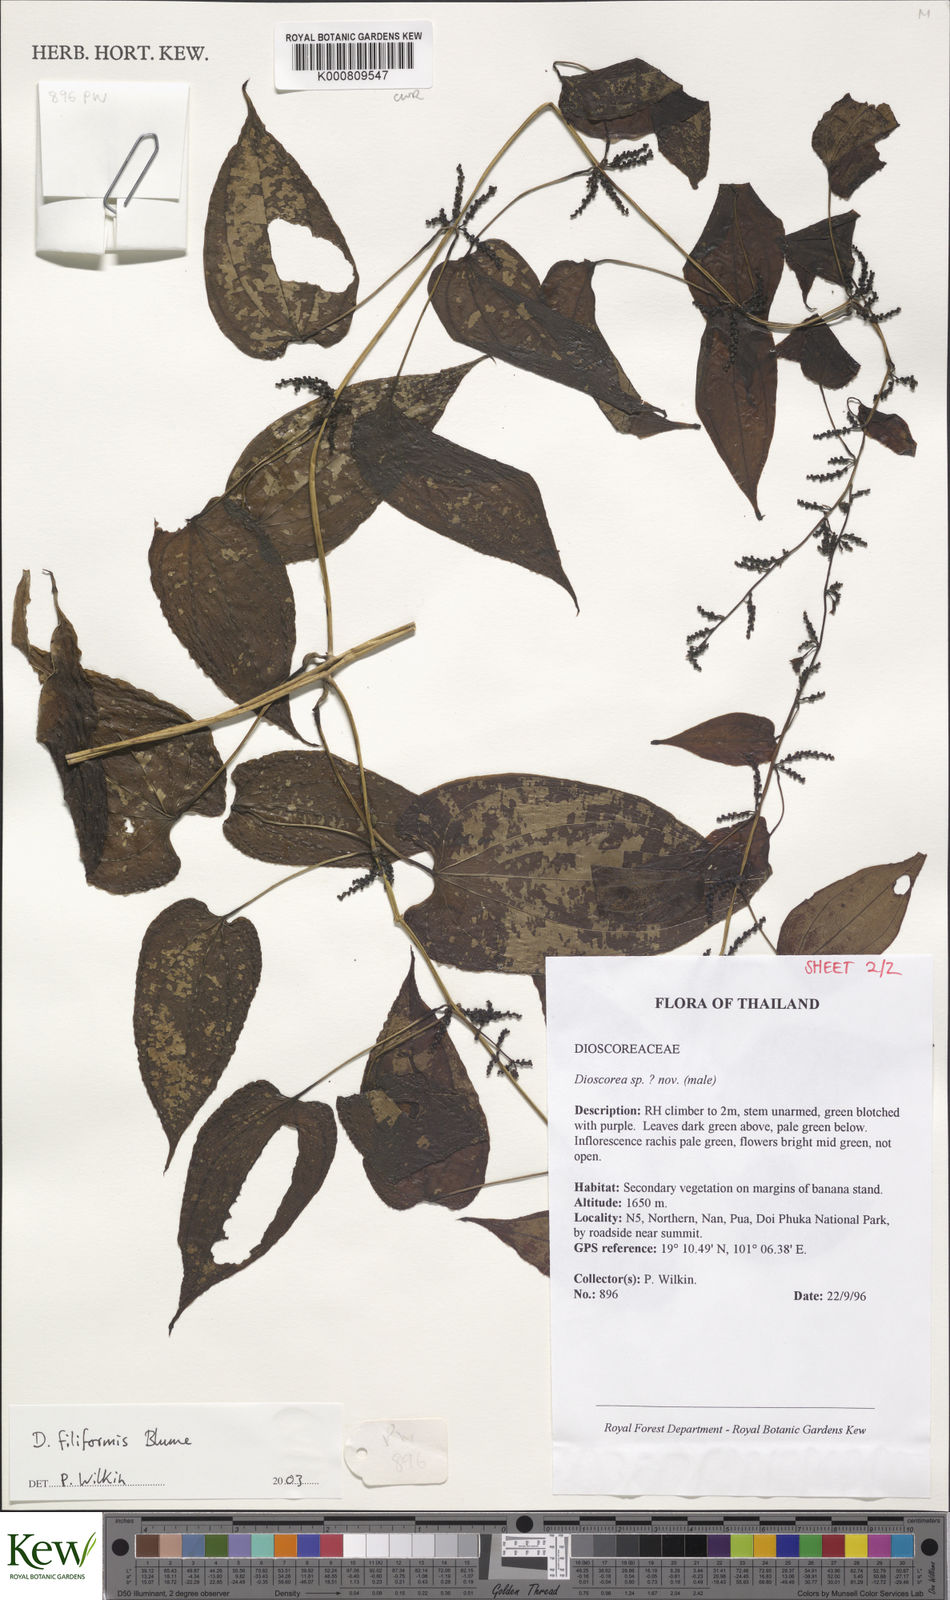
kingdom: Plantae
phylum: Tracheophyta
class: Liliopsida
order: Dioscoreales
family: Dioscoreaceae
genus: Dioscorea
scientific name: Dioscorea filiformis
